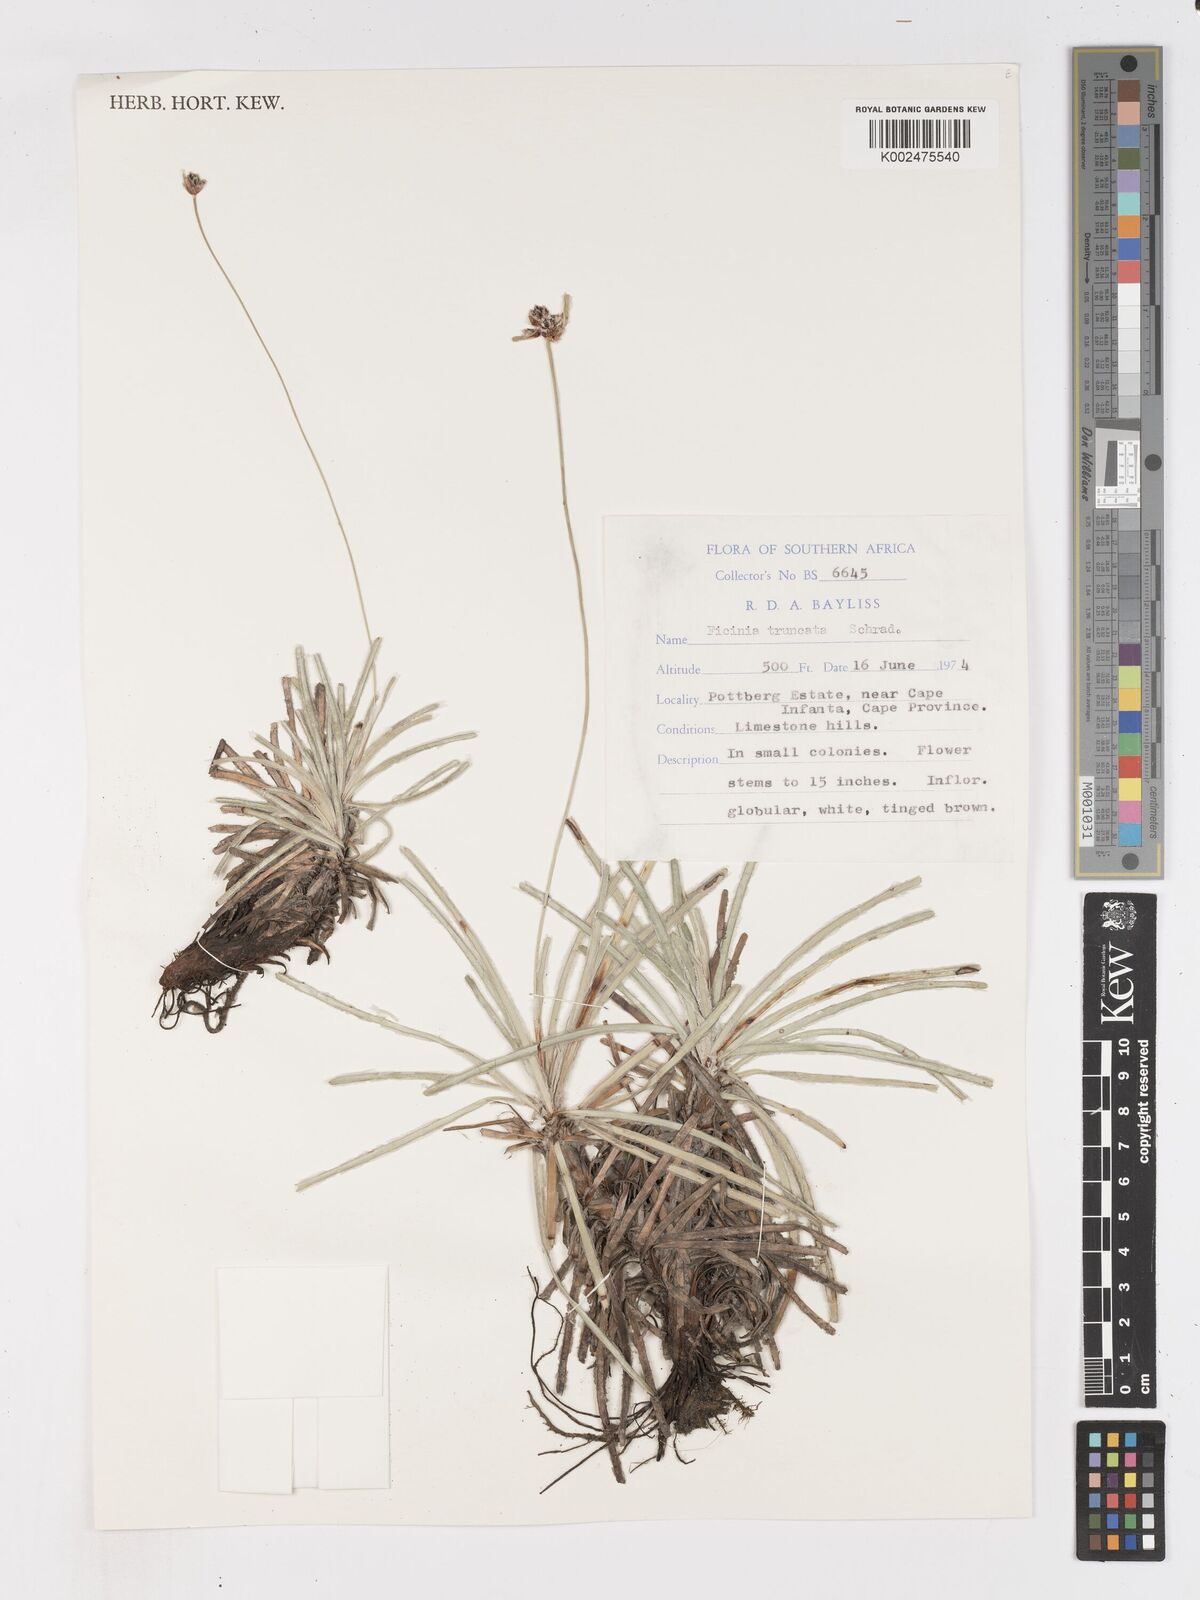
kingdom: Plantae
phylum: Tracheophyta
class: Liliopsida
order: Poales
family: Cyperaceae
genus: Ficinia
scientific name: Ficinia truncata
